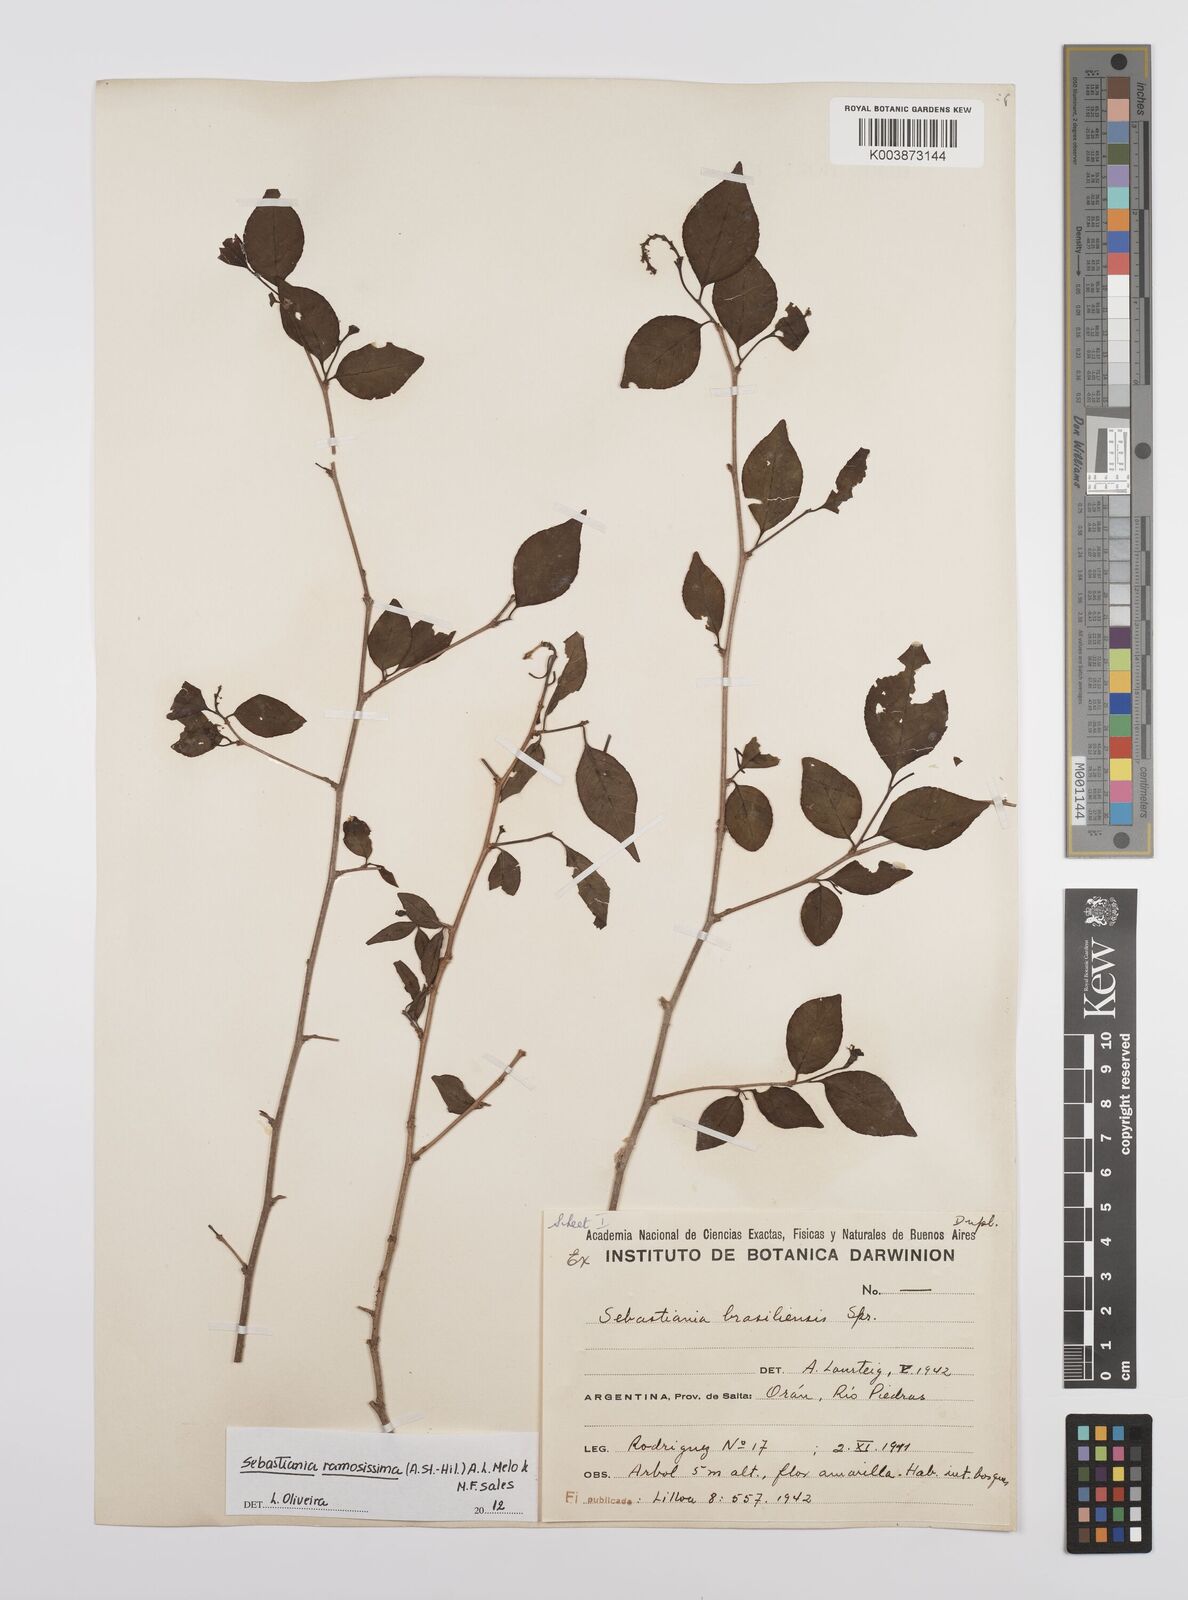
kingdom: Plantae
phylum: Tracheophyta
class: Magnoliopsida
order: Malpighiales
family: Euphorbiaceae
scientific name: Euphorbiaceae
